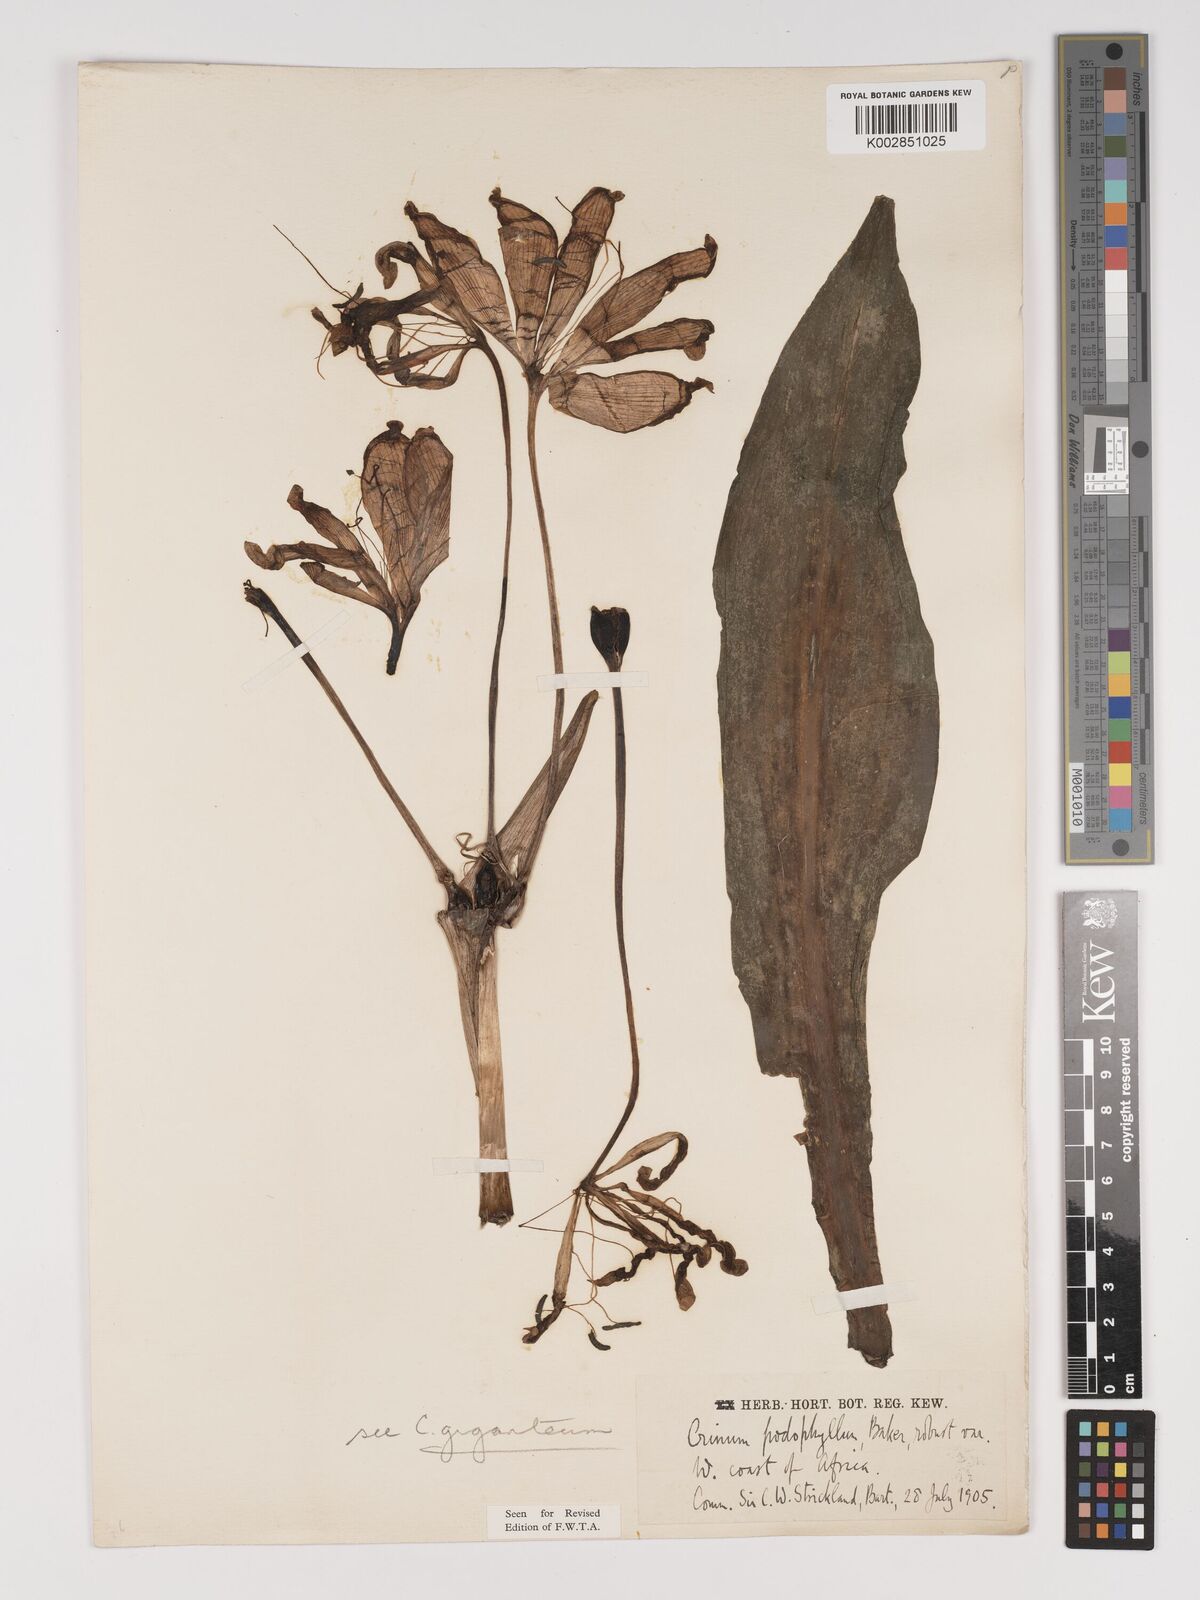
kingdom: Plantae
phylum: Tracheophyta
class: Liliopsida
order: Asparagales
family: Amaryllidaceae
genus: Crinum
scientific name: Crinum jagus
